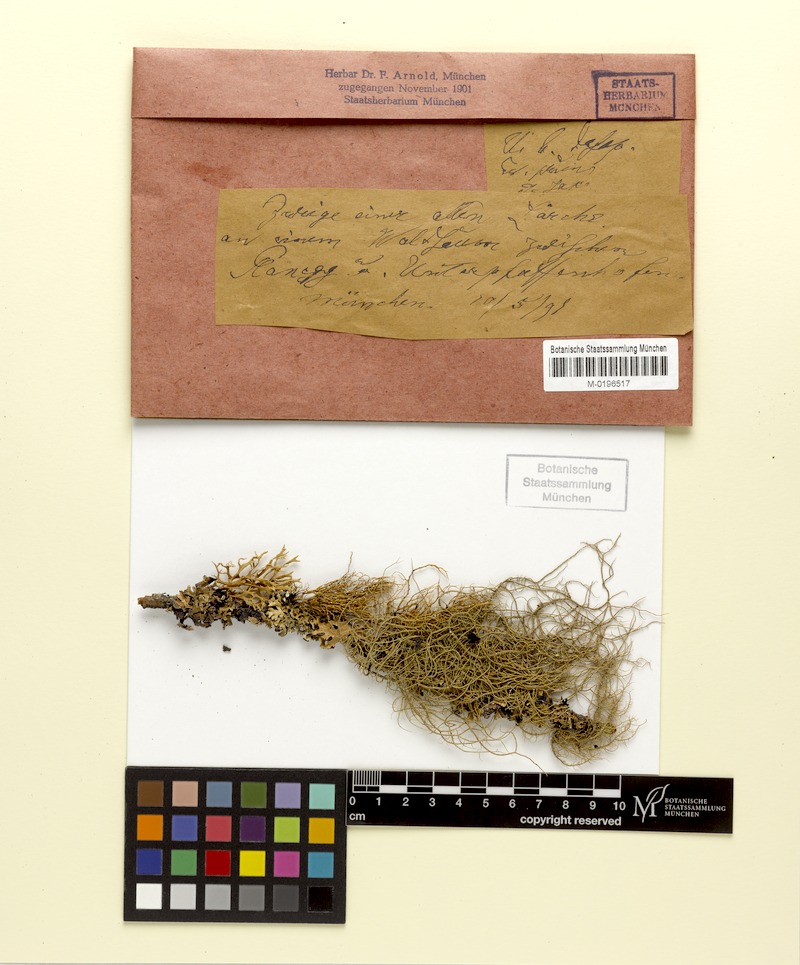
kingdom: Fungi
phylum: Ascomycota
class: Lecanoromycetes
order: Lecanorales
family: Parmeliaceae
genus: Usnea
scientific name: Usnea dasopoga
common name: Fishbone beard lichen
